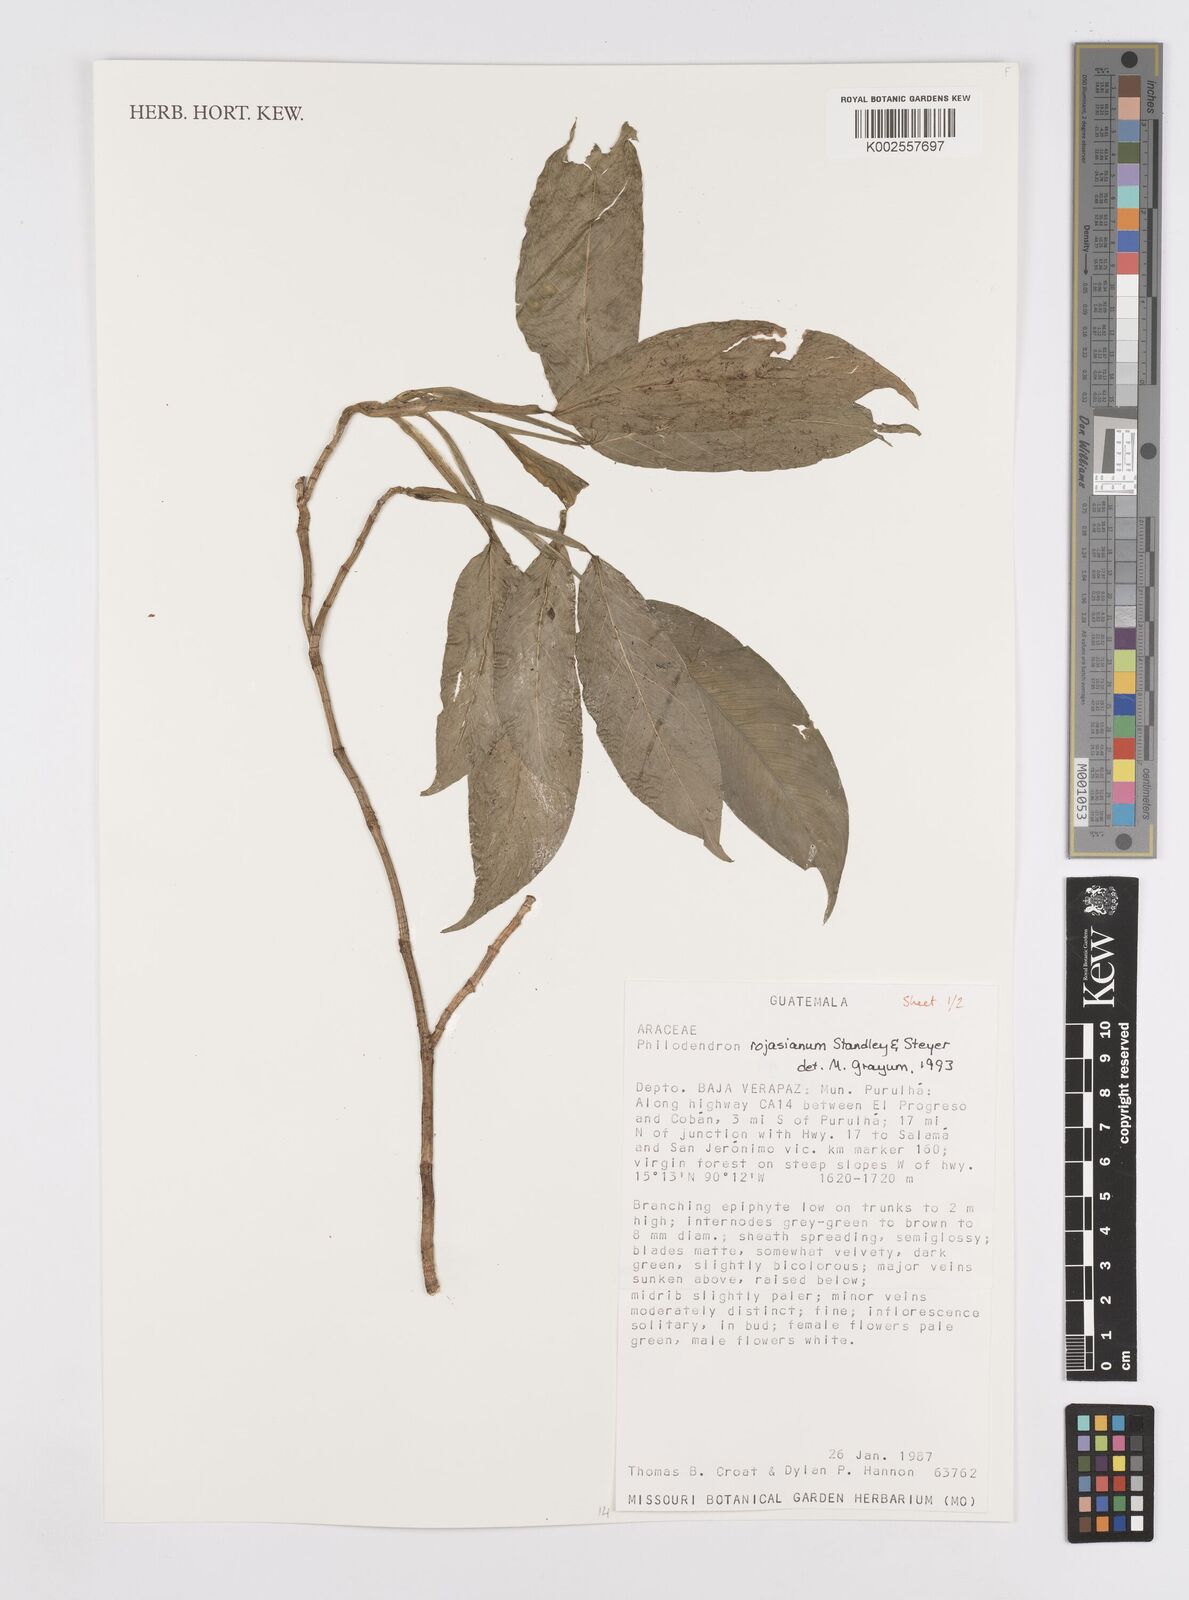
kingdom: Plantae
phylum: Tracheophyta
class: Liliopsida
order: Alismatales
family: Araceae
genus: Philodendron
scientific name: Philodendron rojasianum
